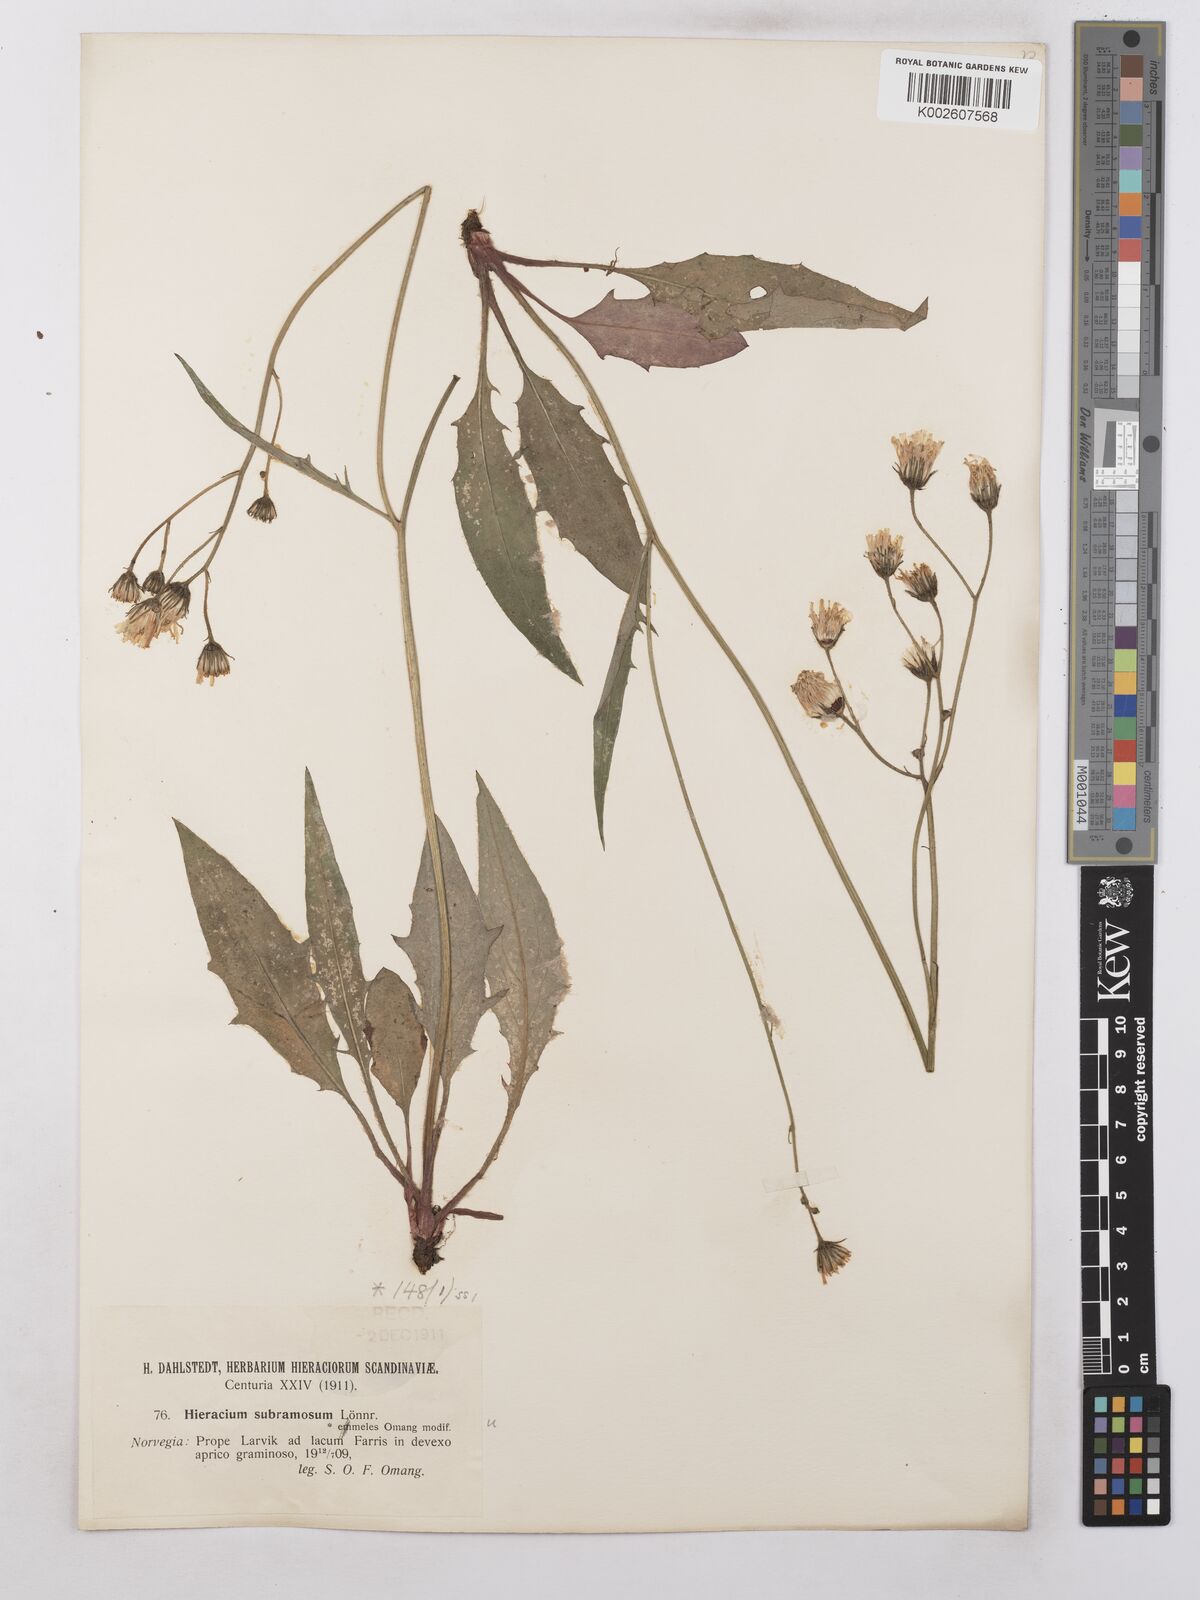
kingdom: Plantae
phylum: Tracheophyta
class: Magnoliopsida
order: Asterales
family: Asteraceae
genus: Hieracium
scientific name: Hieracium subramosum
